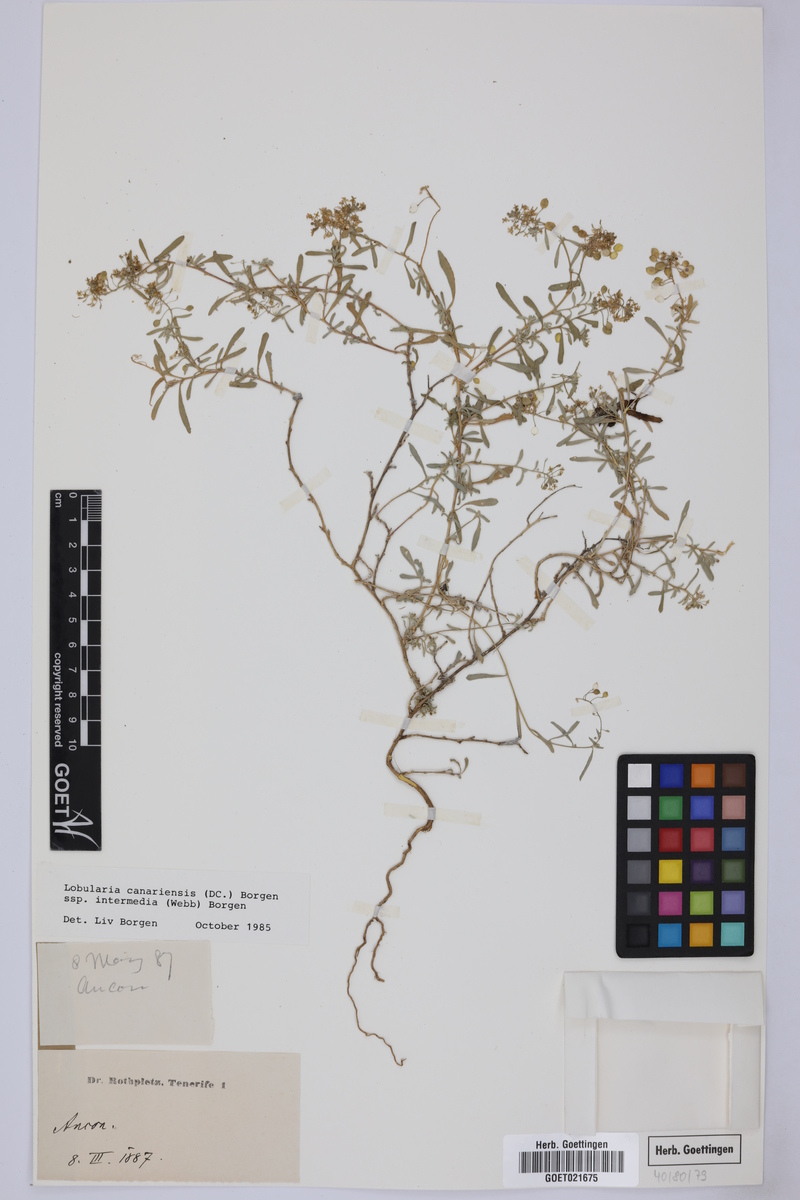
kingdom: Plantae
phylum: Tracheophyta
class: Magnoliopsida
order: Brassicales
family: Brassicaceae
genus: Lobularia
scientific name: Lobularia canariensis
